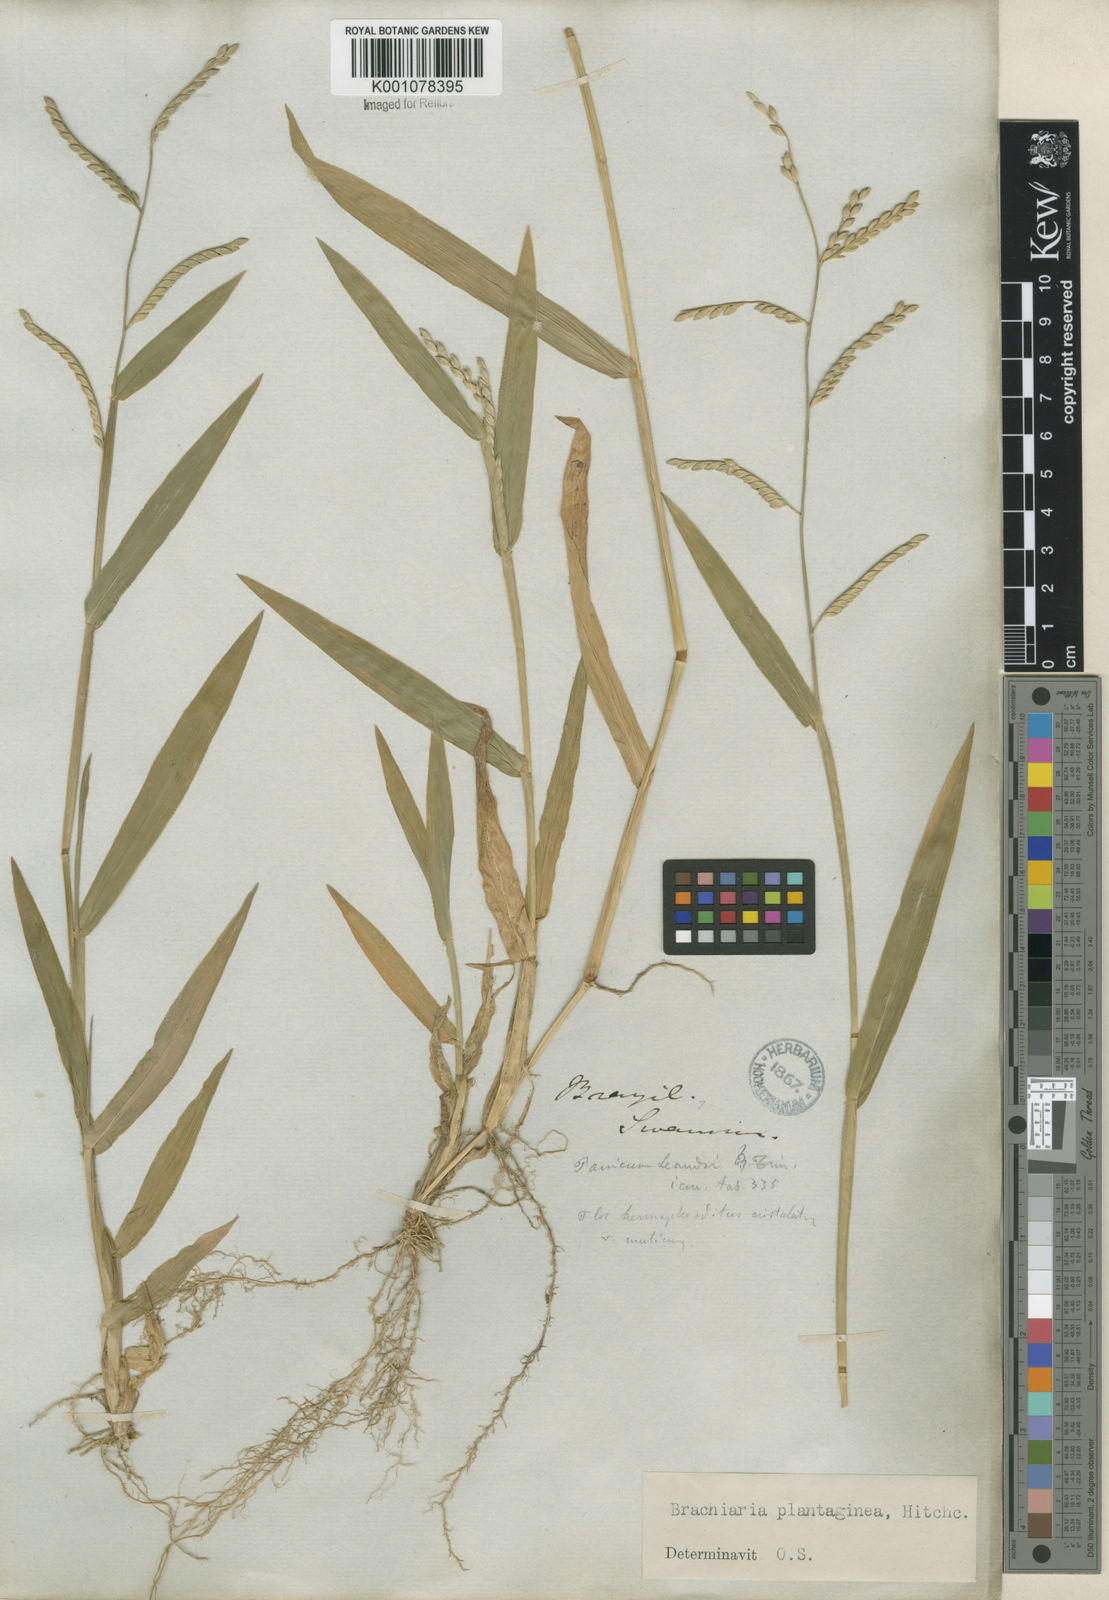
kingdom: Plantae
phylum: Tracheophyta
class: Liliopsida
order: Poales
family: Poaceae
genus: Urochloa
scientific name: Urochloa plantaginea
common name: Plantain signalgrass
